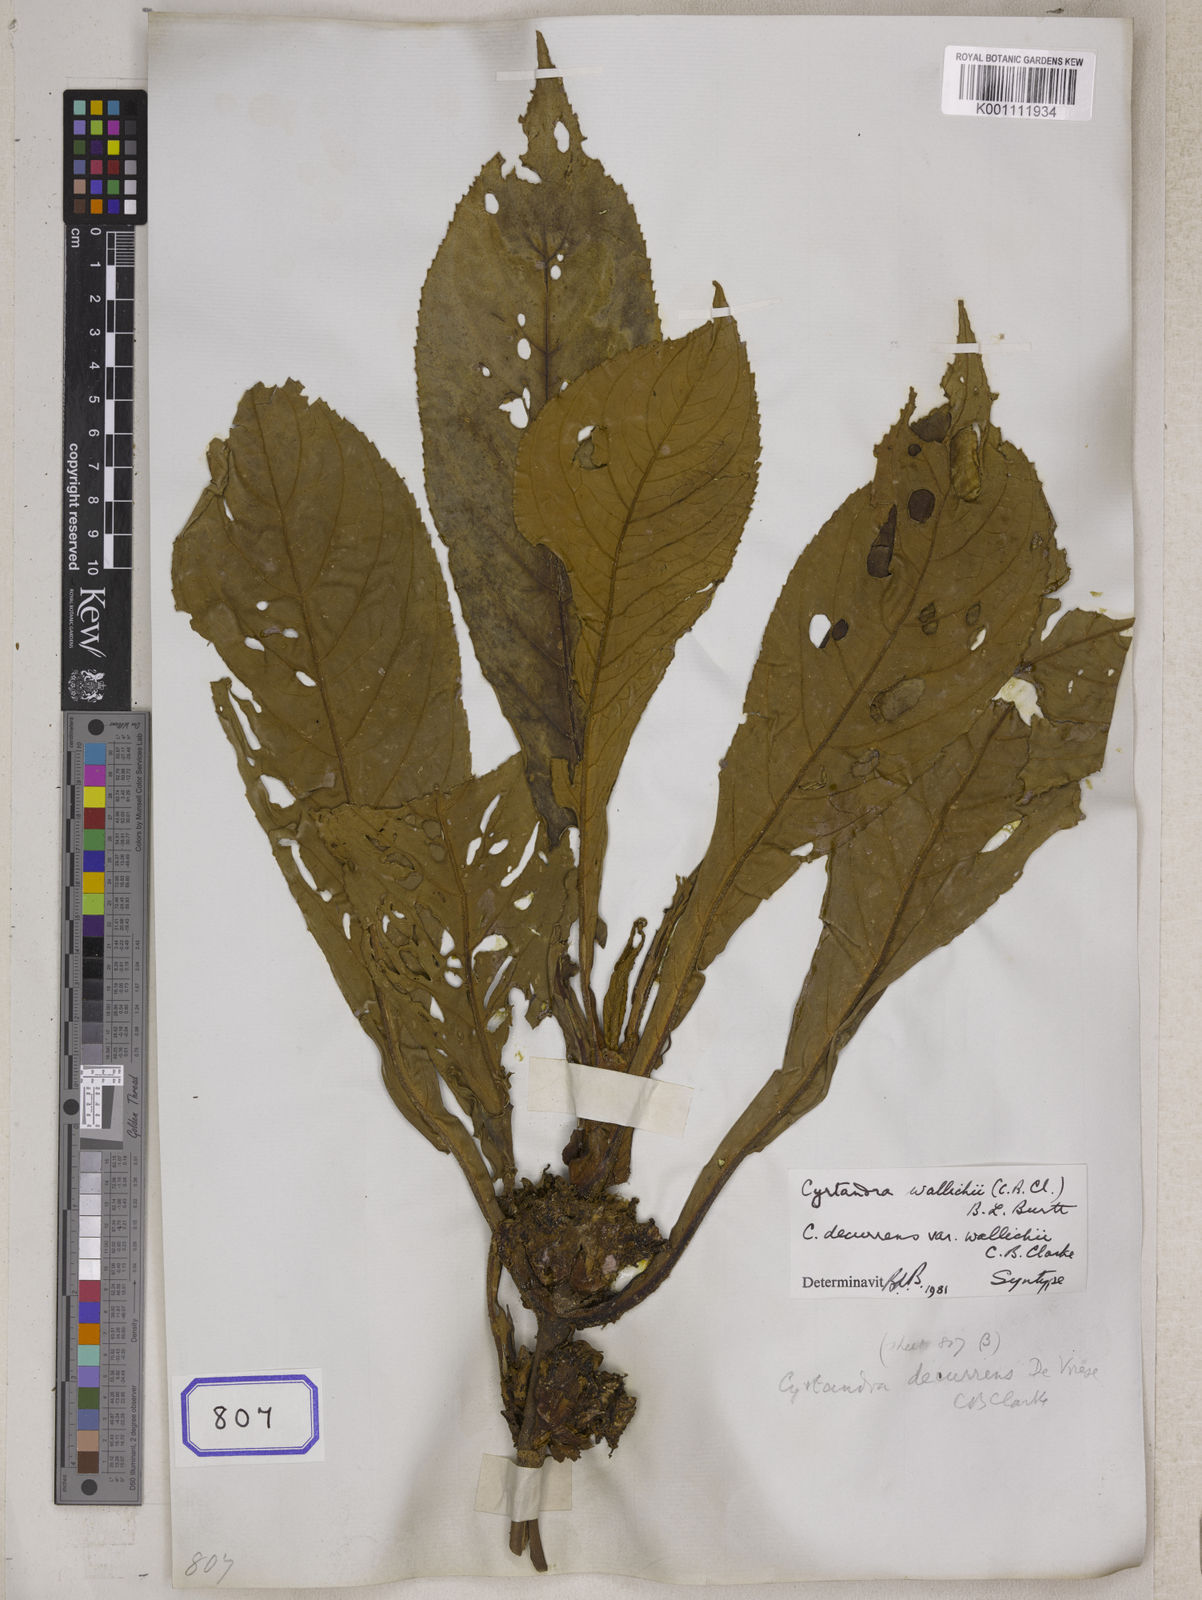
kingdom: Plantae
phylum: Tracheophyta
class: Magnoliopsida
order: Lamiales
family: Gesneriaceae
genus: Cyrtandra
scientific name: Cyrtandra frutescens
